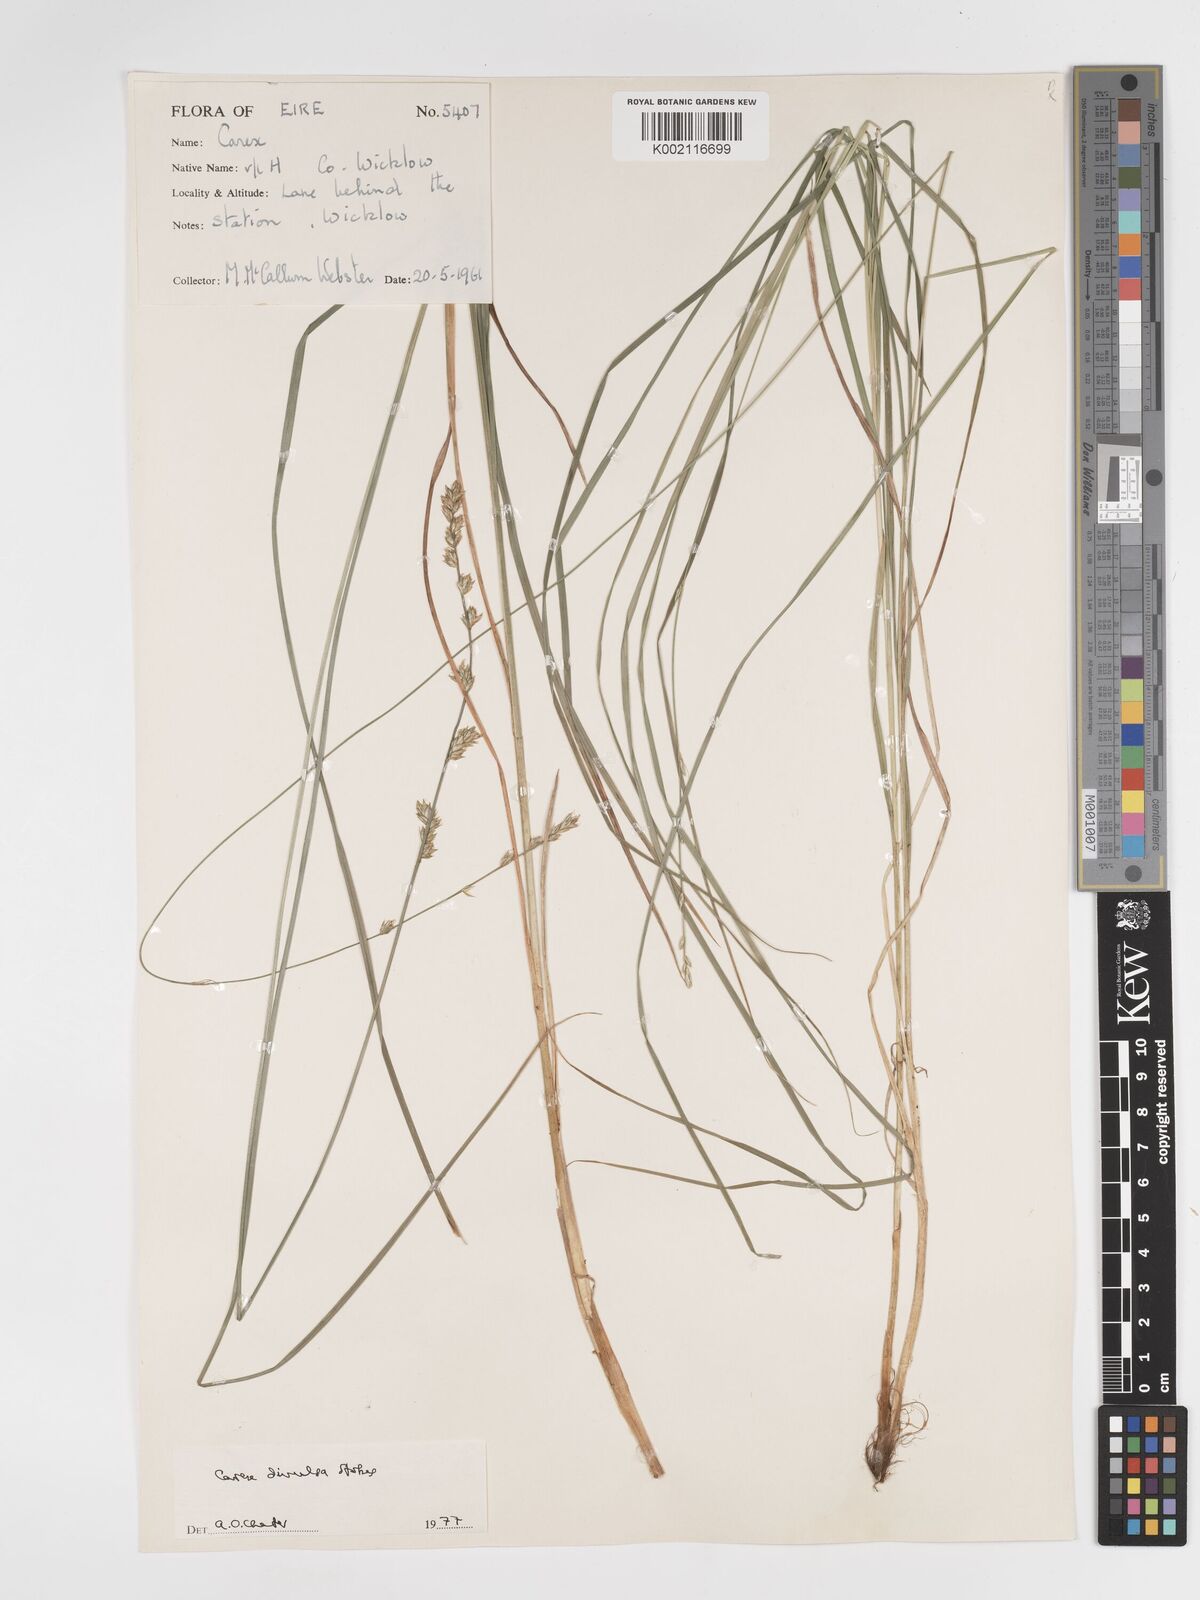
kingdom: Plantae
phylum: Tracheophyta
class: Liliopsida
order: Poales
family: Cyperaceae
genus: Carex
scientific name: Carex divulsa
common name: Grassland sedge
